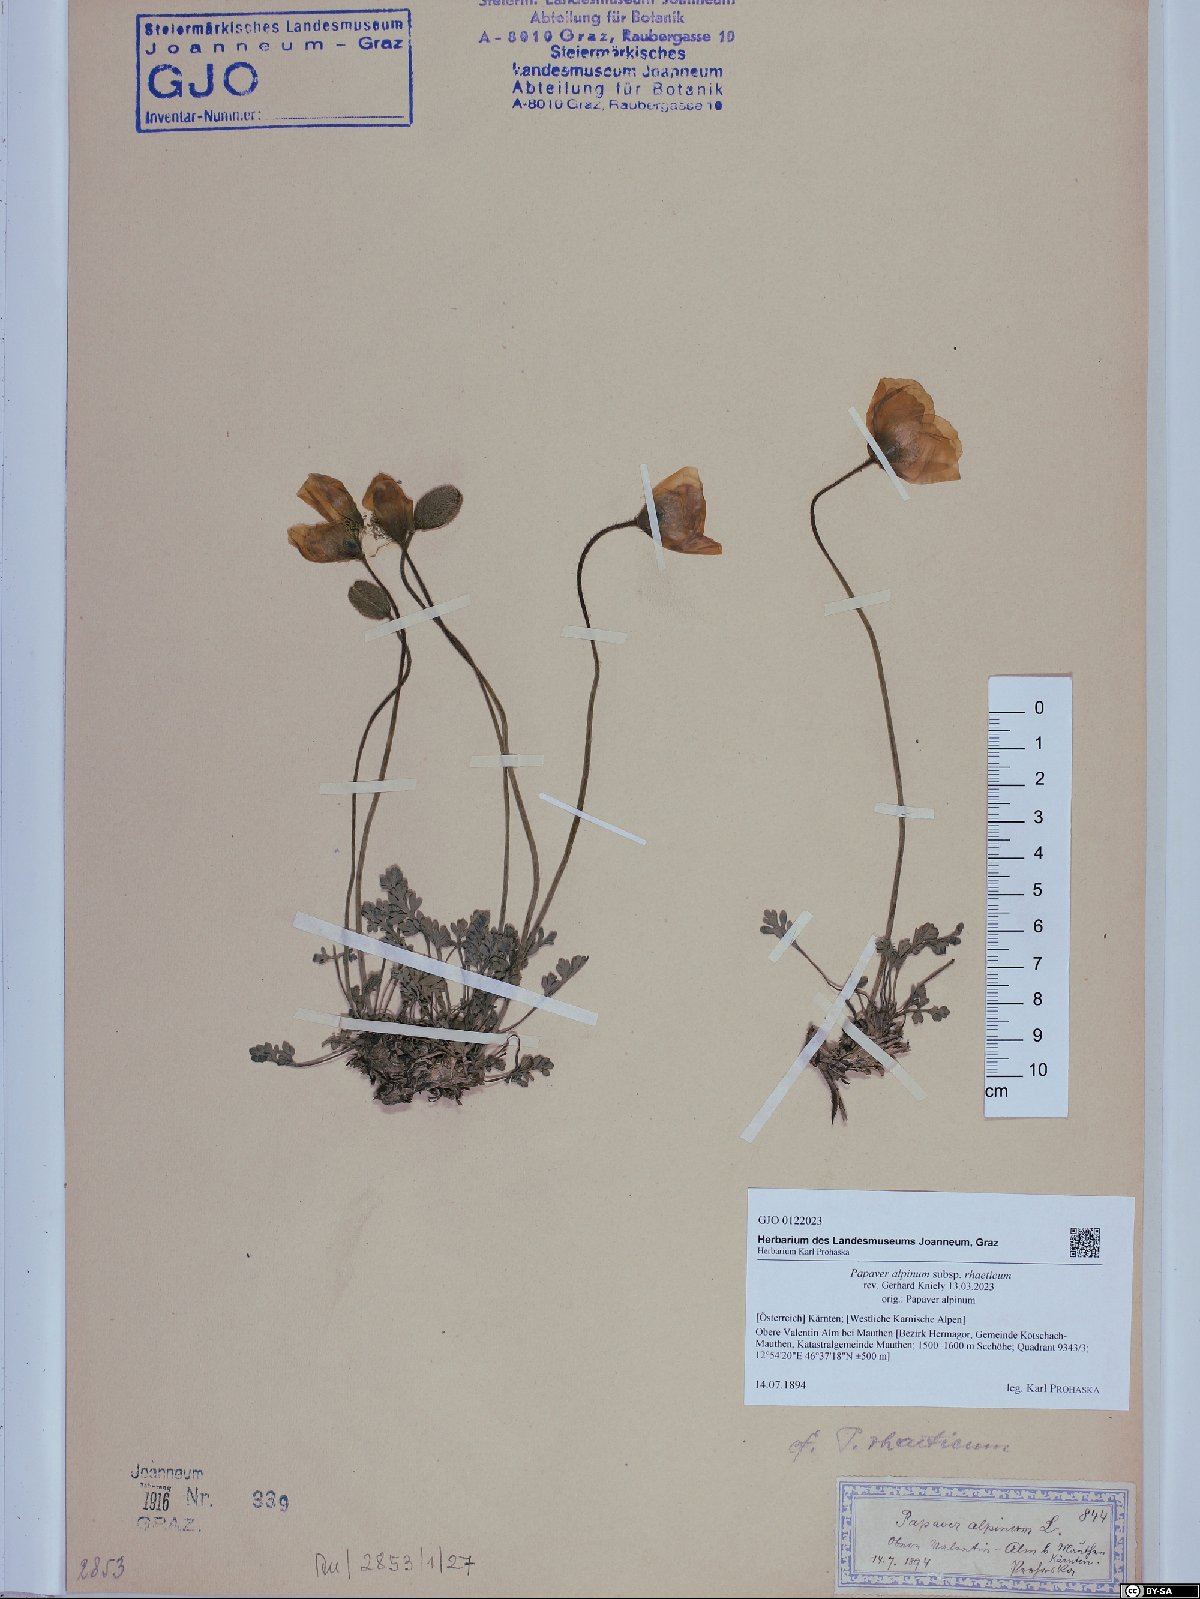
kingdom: Plantae
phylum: Tracheophyta
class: Magnoliopsida
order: Ranunculales
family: Papaveraceae
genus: Papaver
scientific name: Papaver alpinum
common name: Austrian poppy
